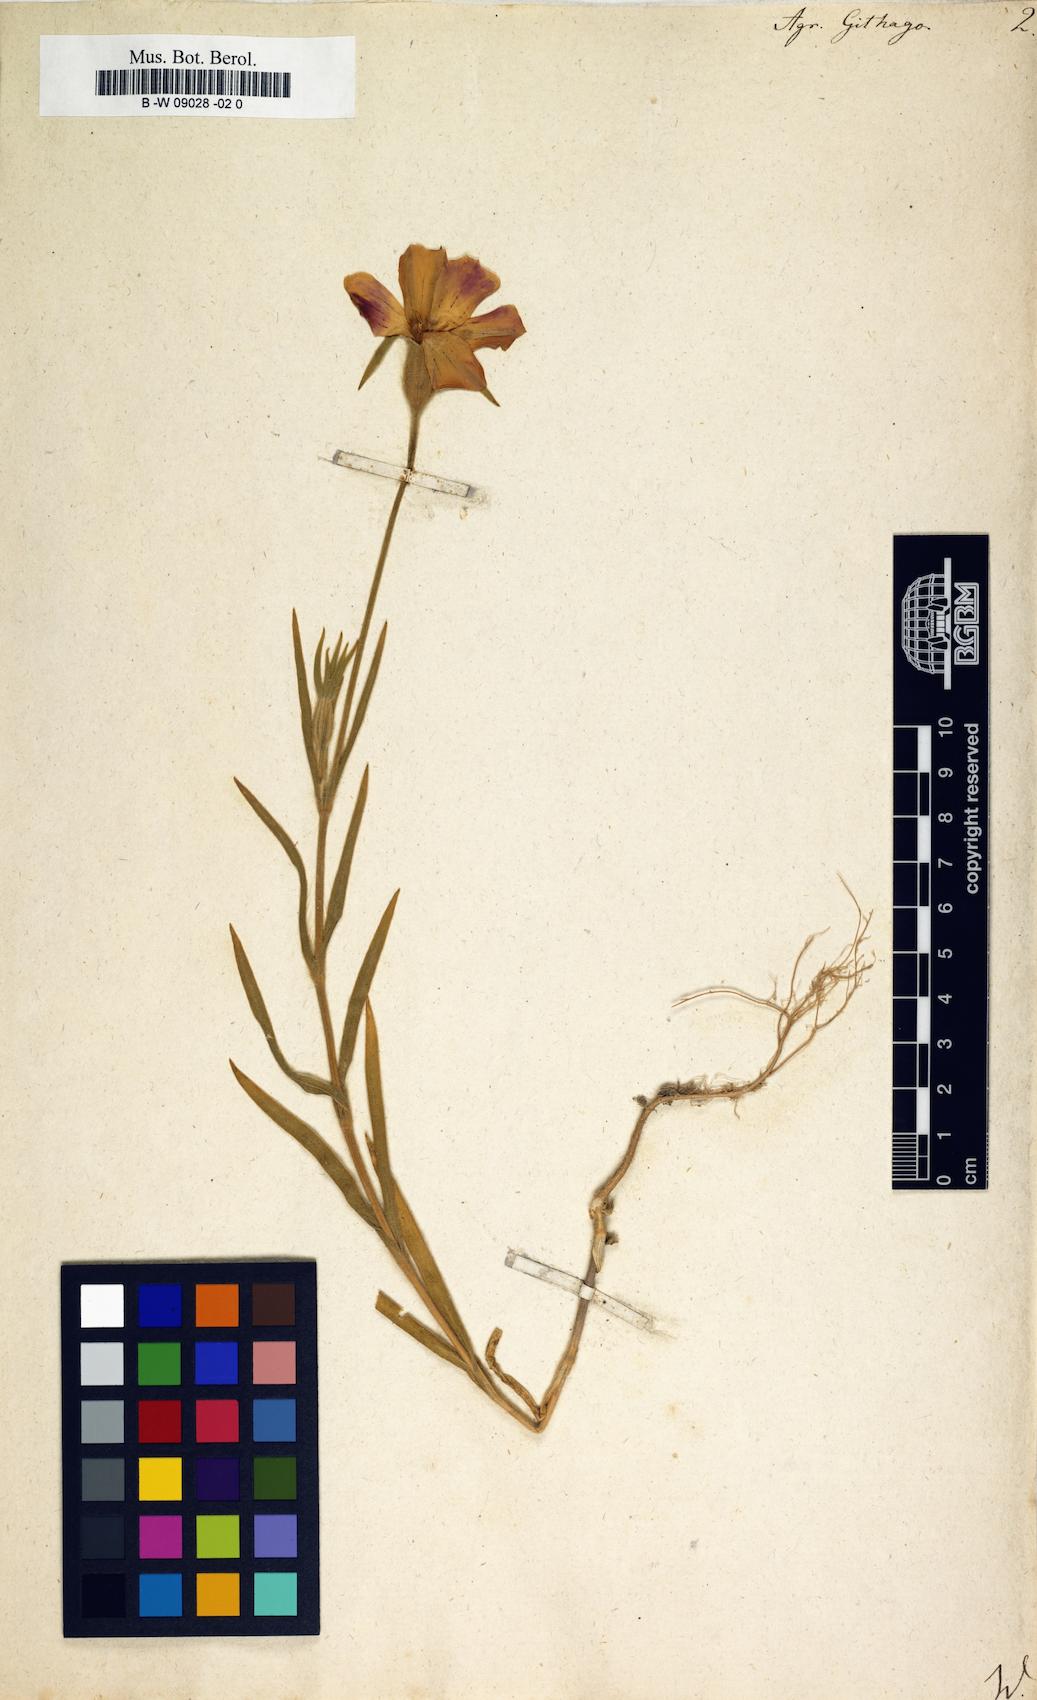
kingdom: Plantae
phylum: Tracheophyta
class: Magnoliopsida
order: Caryophyllales
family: Caryophyllaceae
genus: Agrostemma
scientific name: Agrostemma githago
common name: Common corncockle
